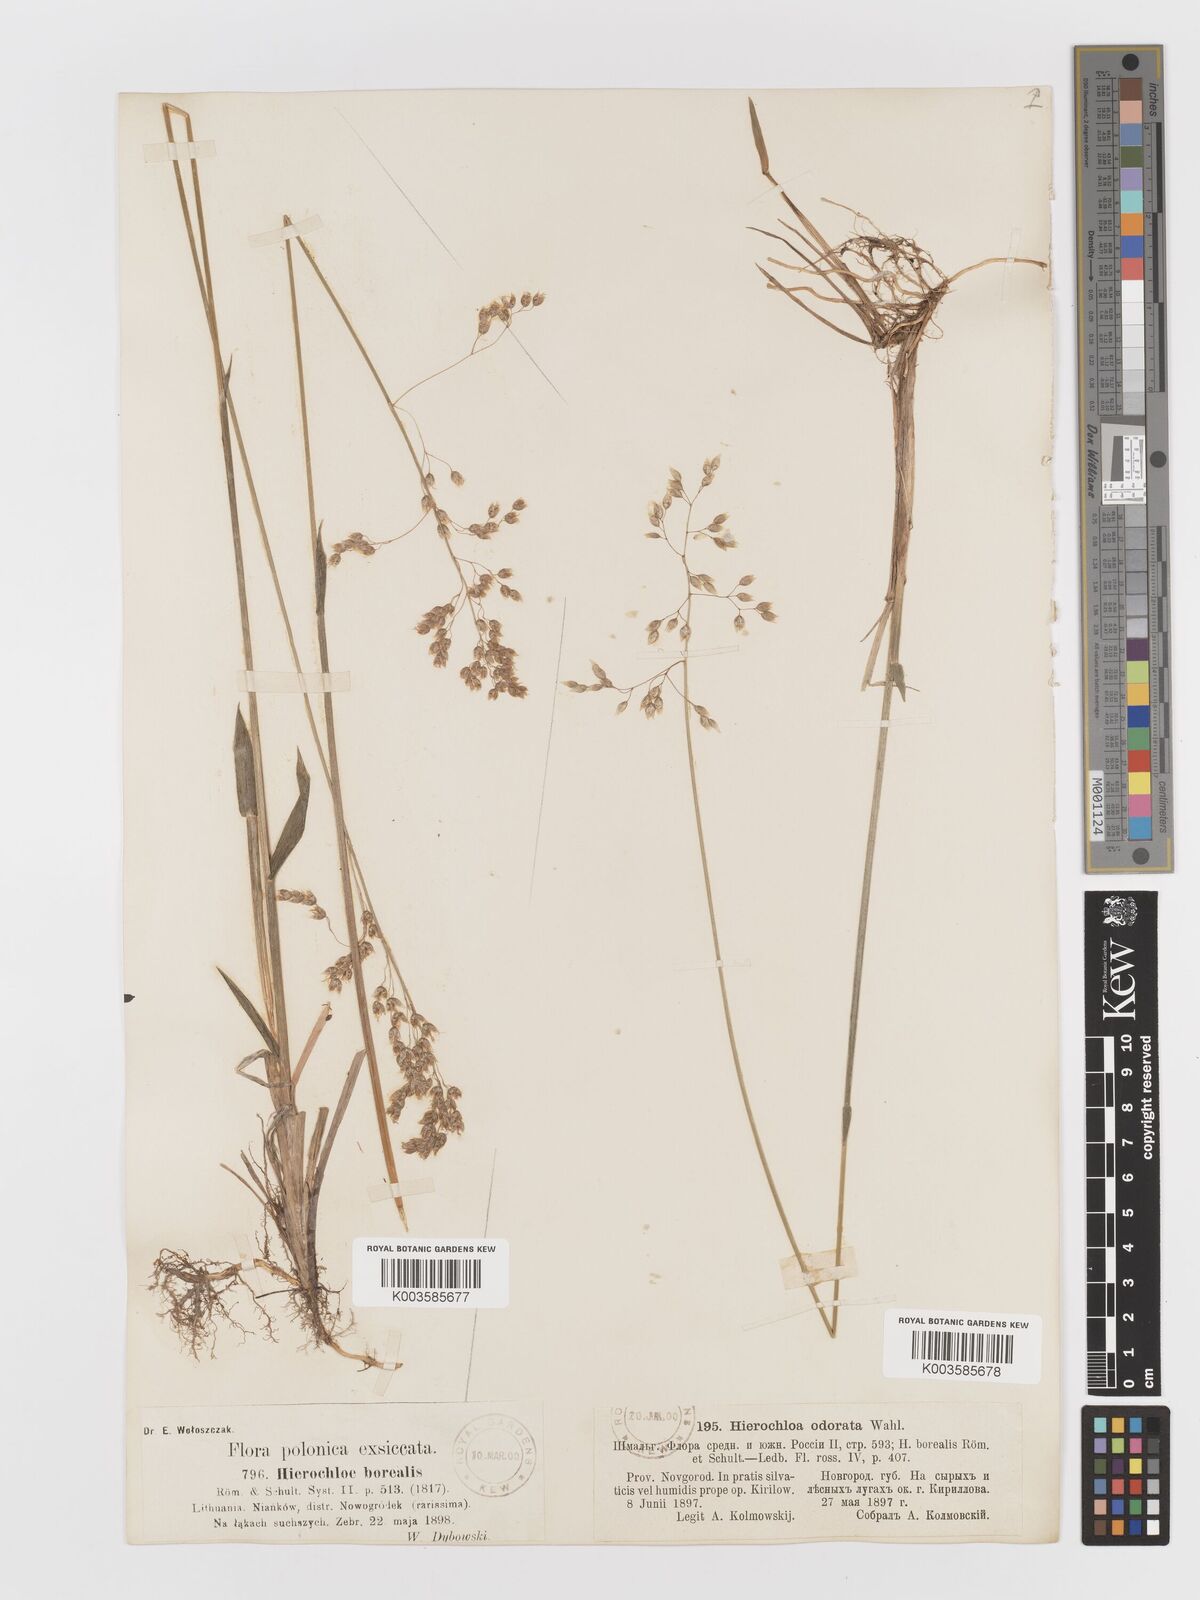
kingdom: Plantae
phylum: Tracheophyta
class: Liliopsida
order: Poales
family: Poaceae
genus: Anthoxanthum
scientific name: Anthoxanthum nitens
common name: Holy grass
